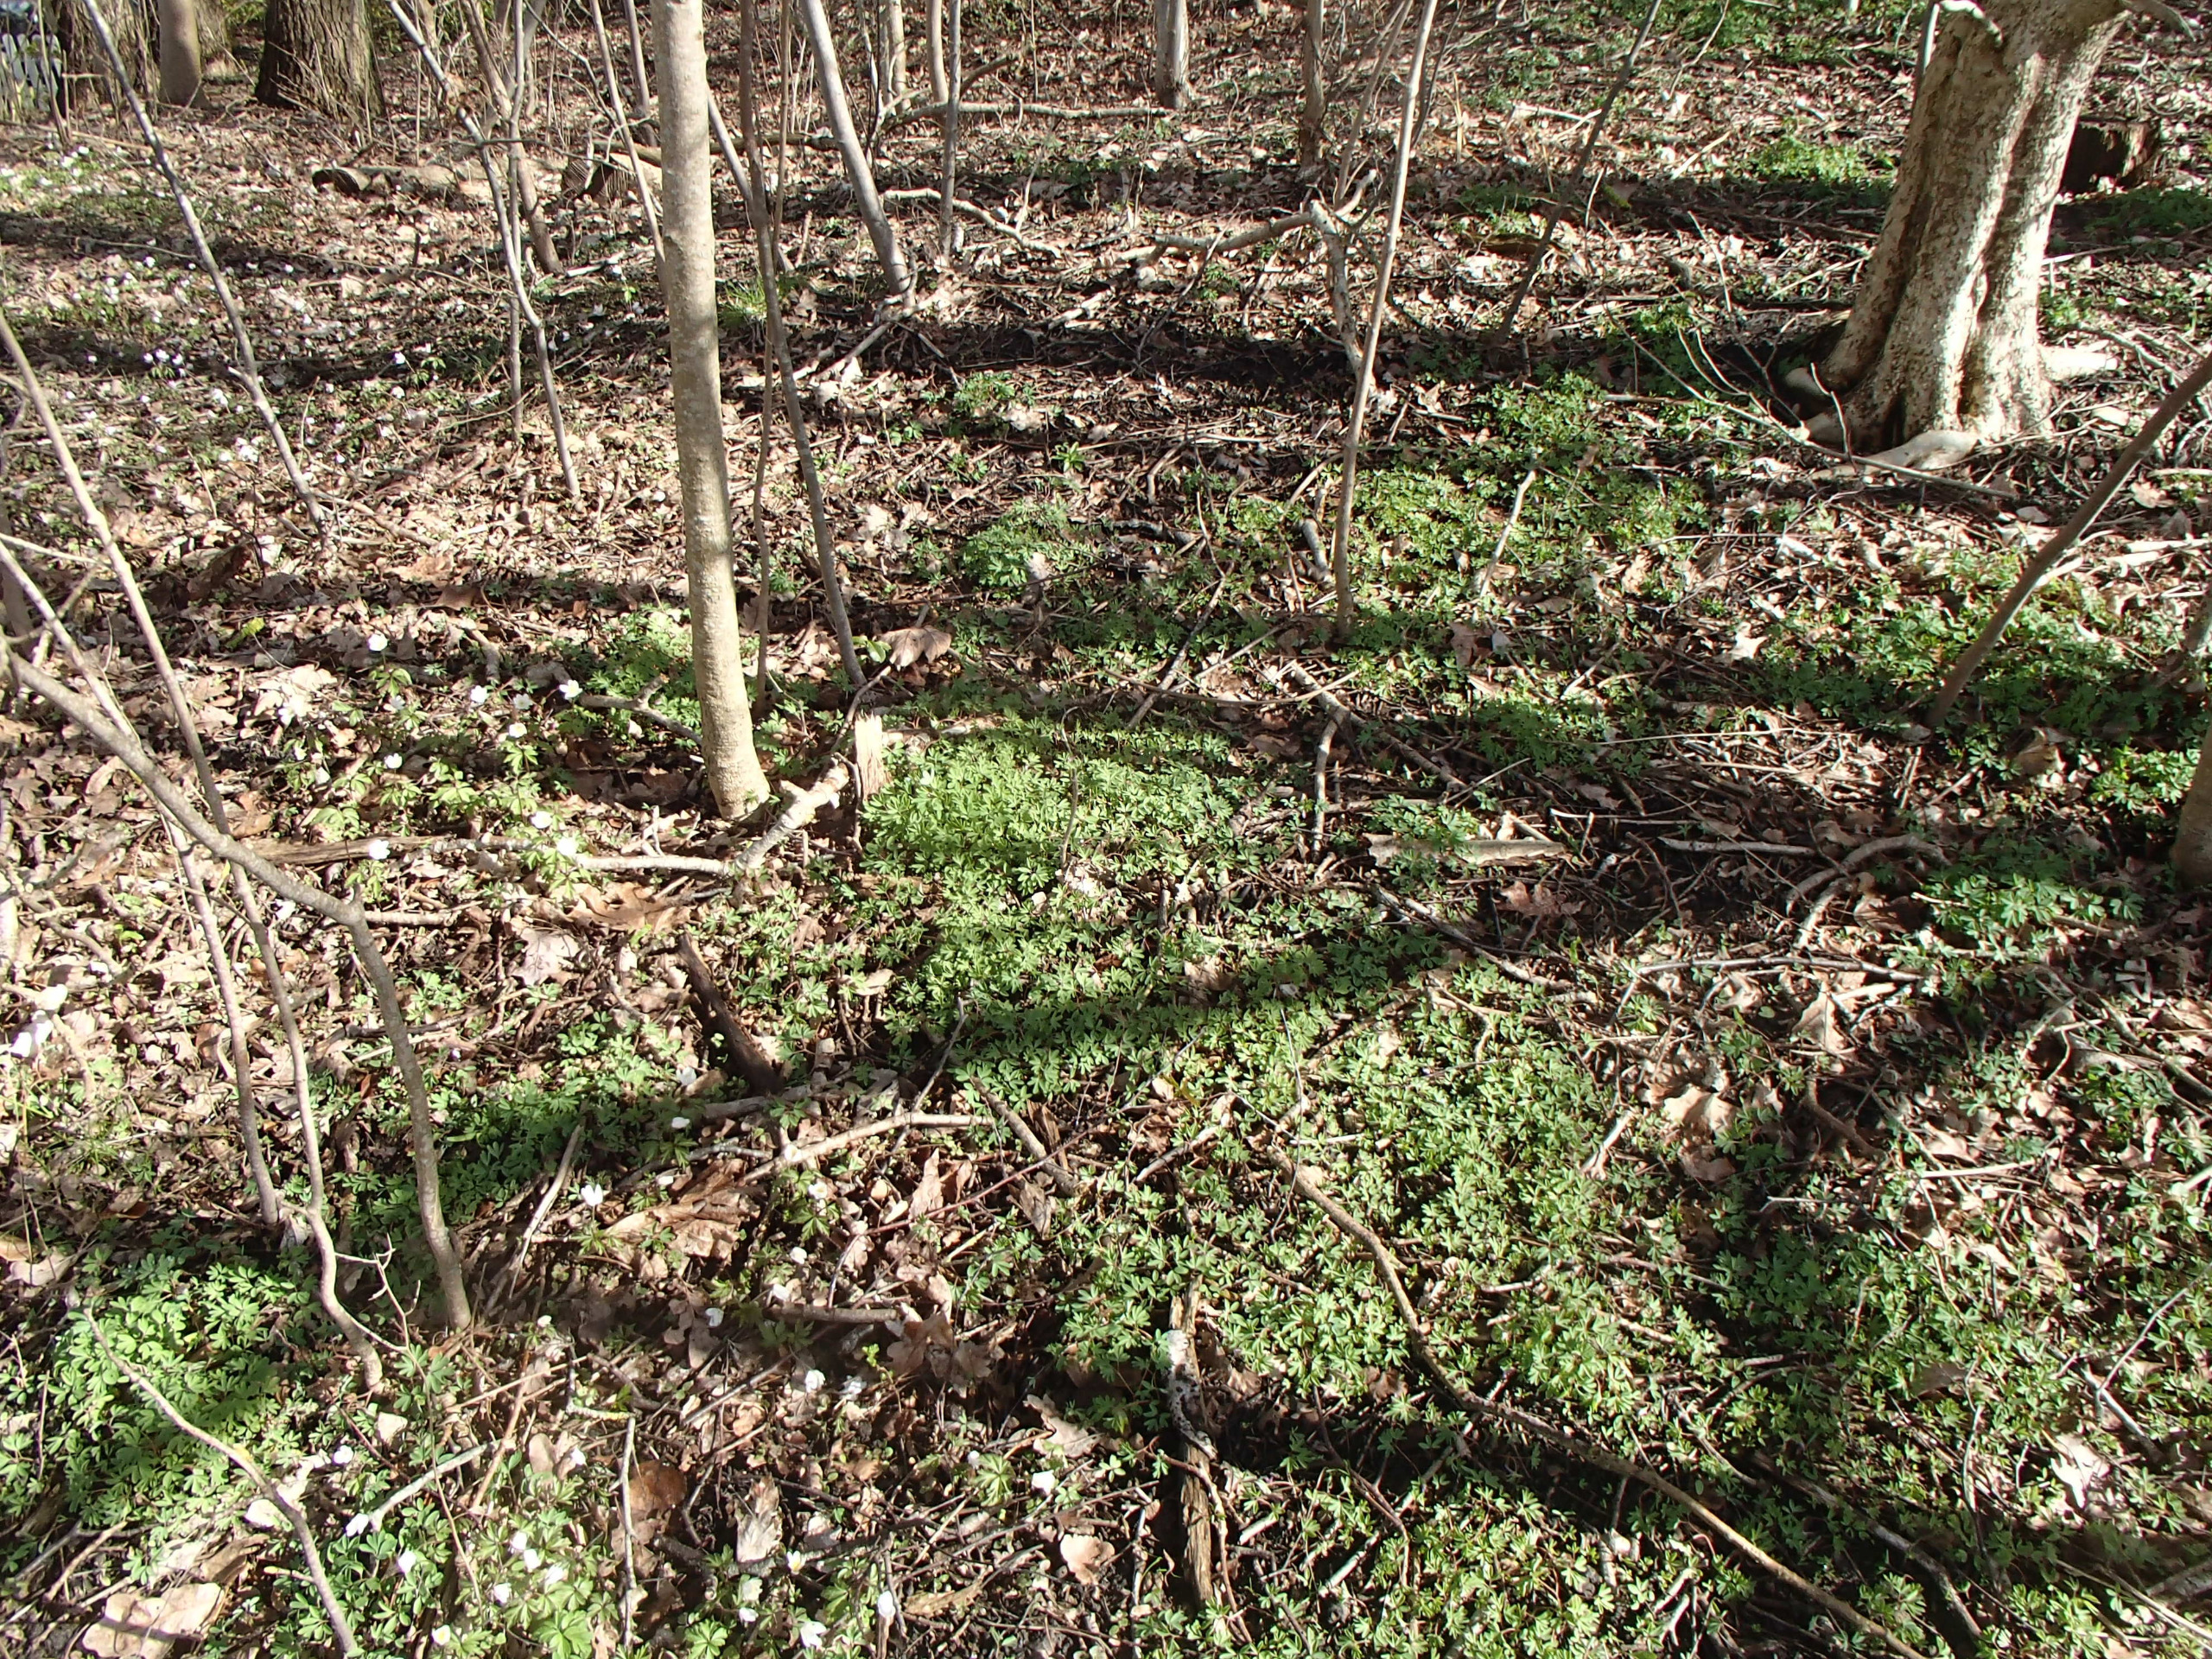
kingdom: Plantae
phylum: Tracheophyta
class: Magnoliopsida
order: Ranunculales
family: Papaveraceae
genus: Corydalis
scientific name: Corydalis intermedia
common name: Liden lærkespore
